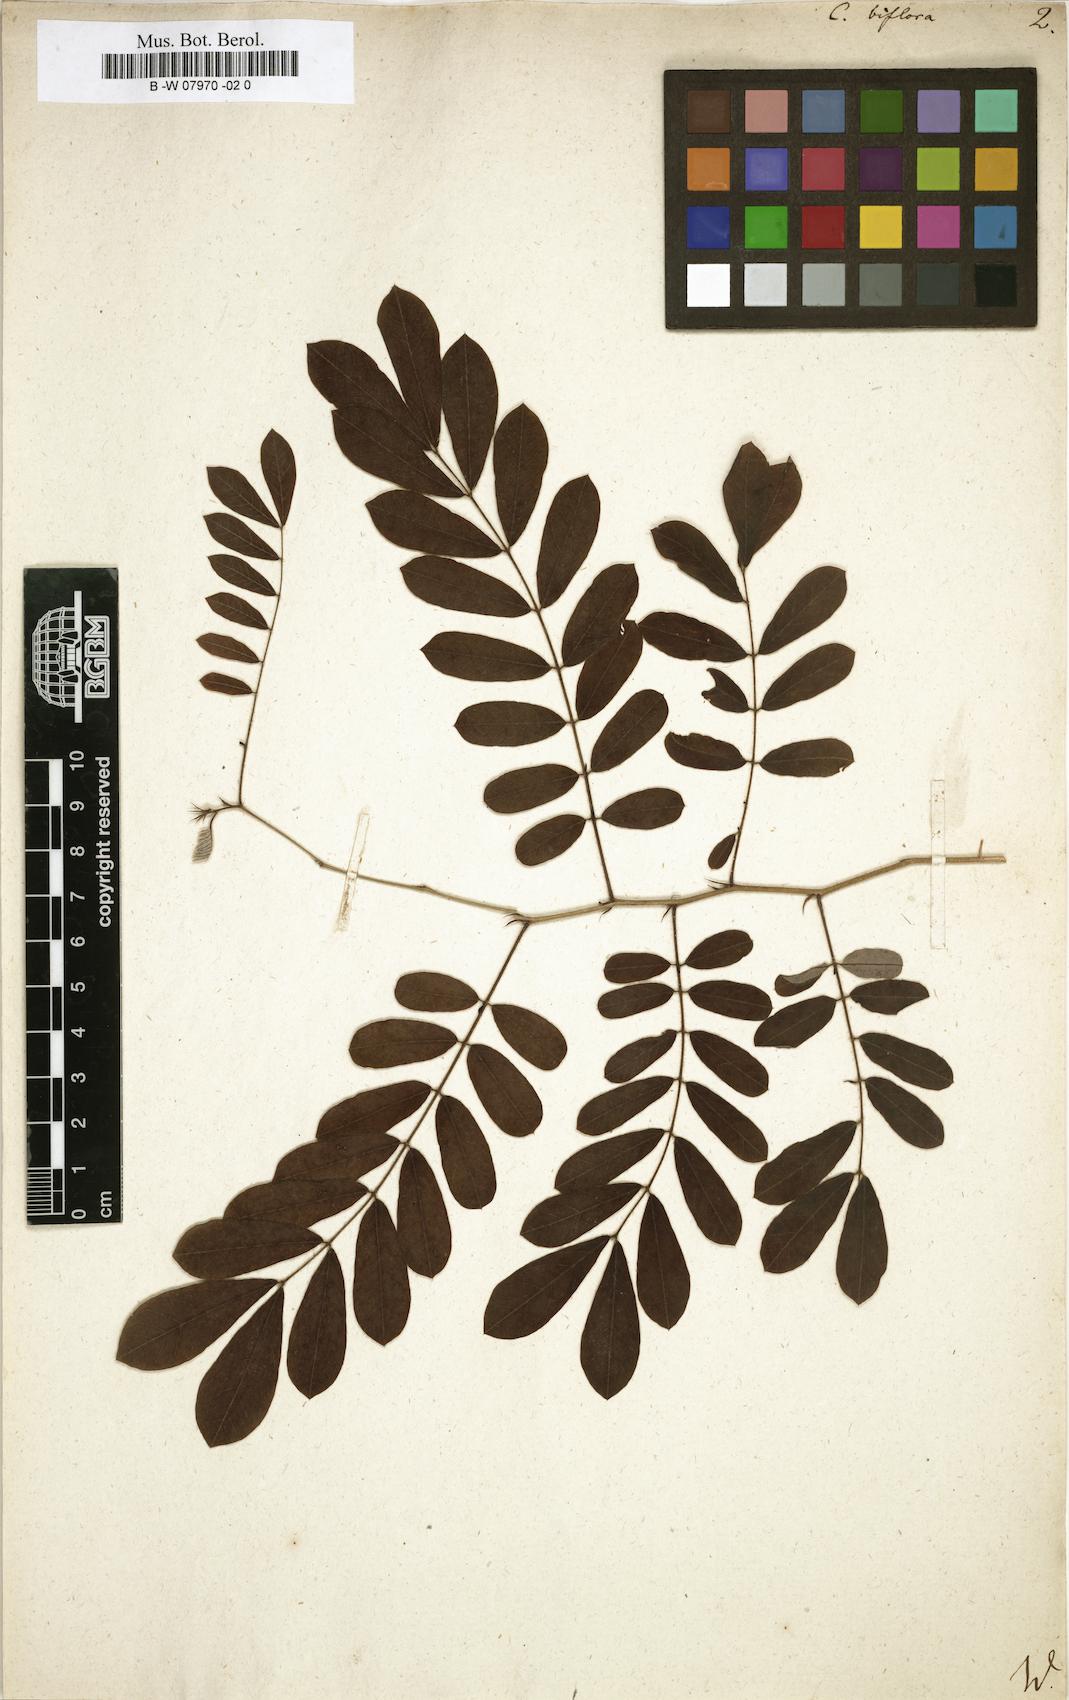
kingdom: Plantae
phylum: Tracheophyta
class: Magnoliopsida
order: Fabales
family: Fabaceae
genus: Senna
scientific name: Senna pallida
